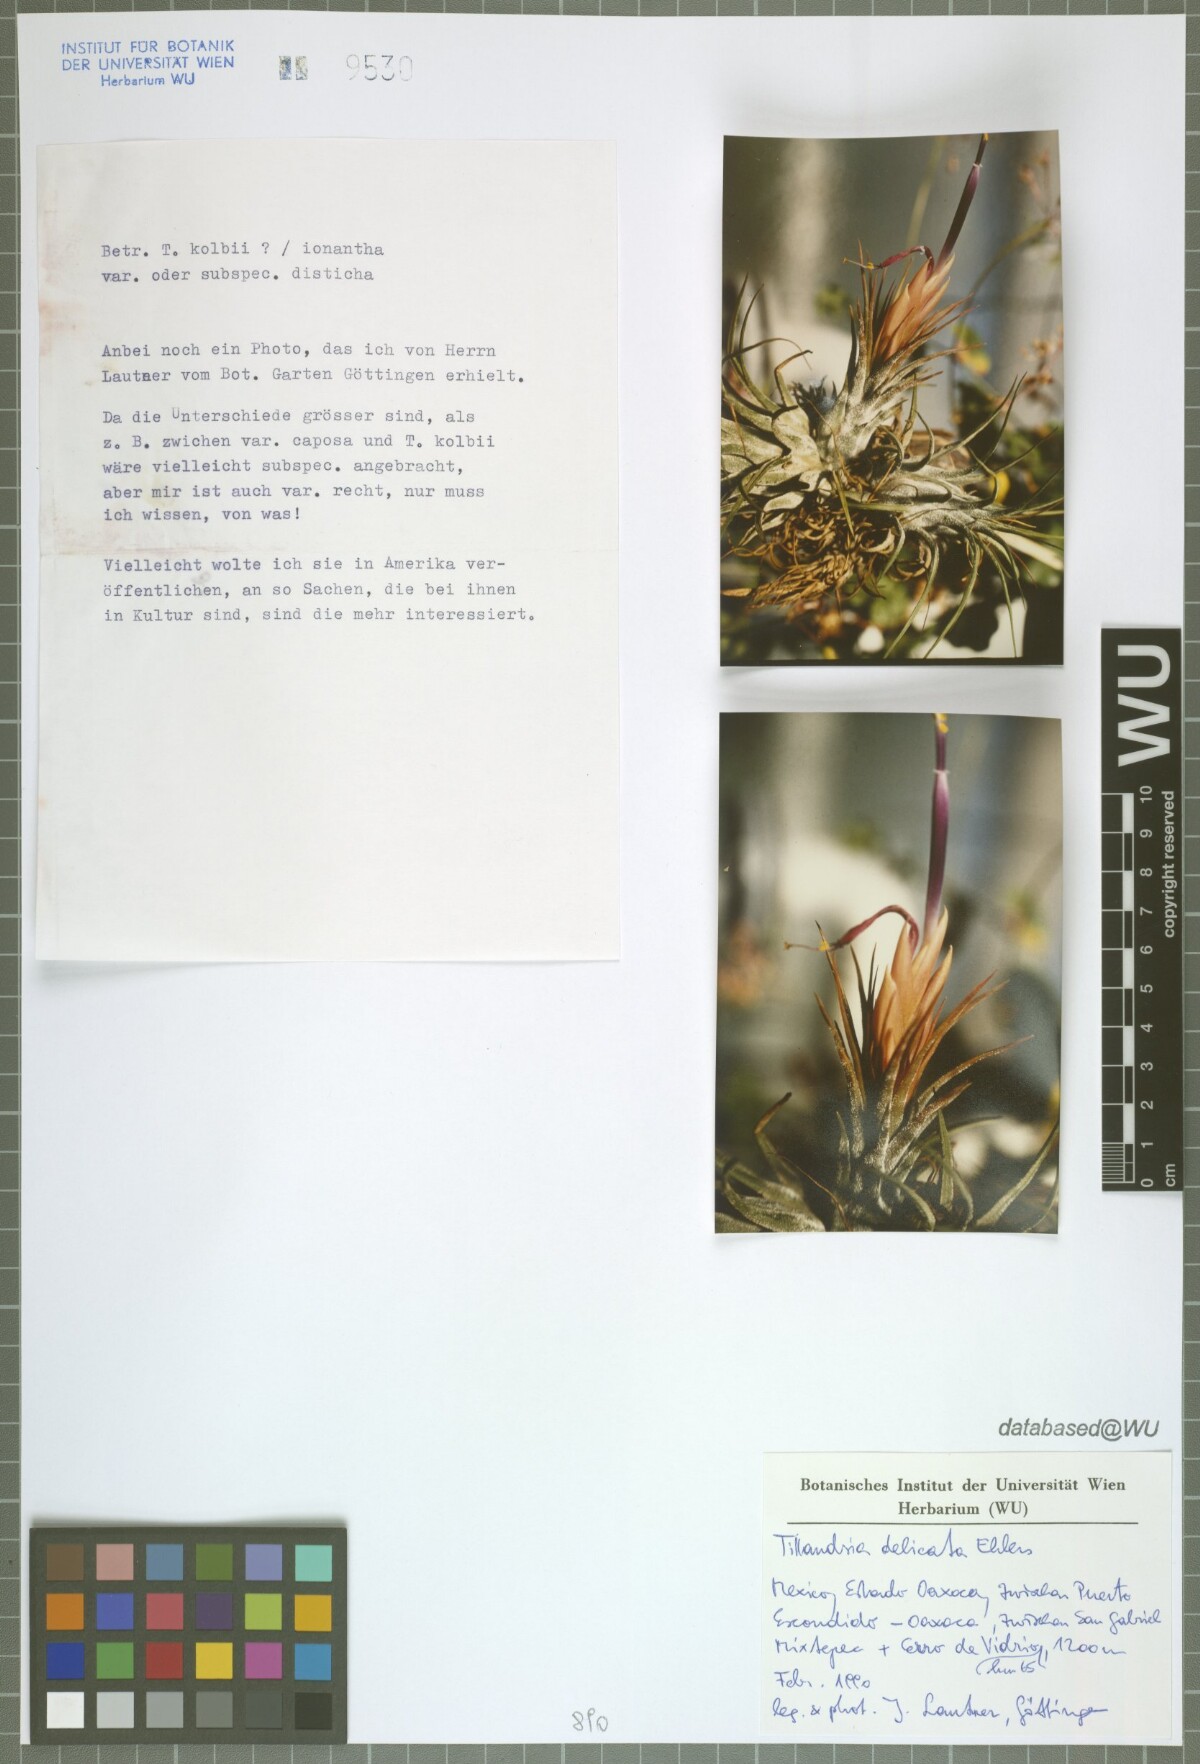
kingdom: Plantae
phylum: Tracheophyta
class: Liliopsida
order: Poales
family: Bromeliaceae
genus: Tillandsia
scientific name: Tillandsia delicata
